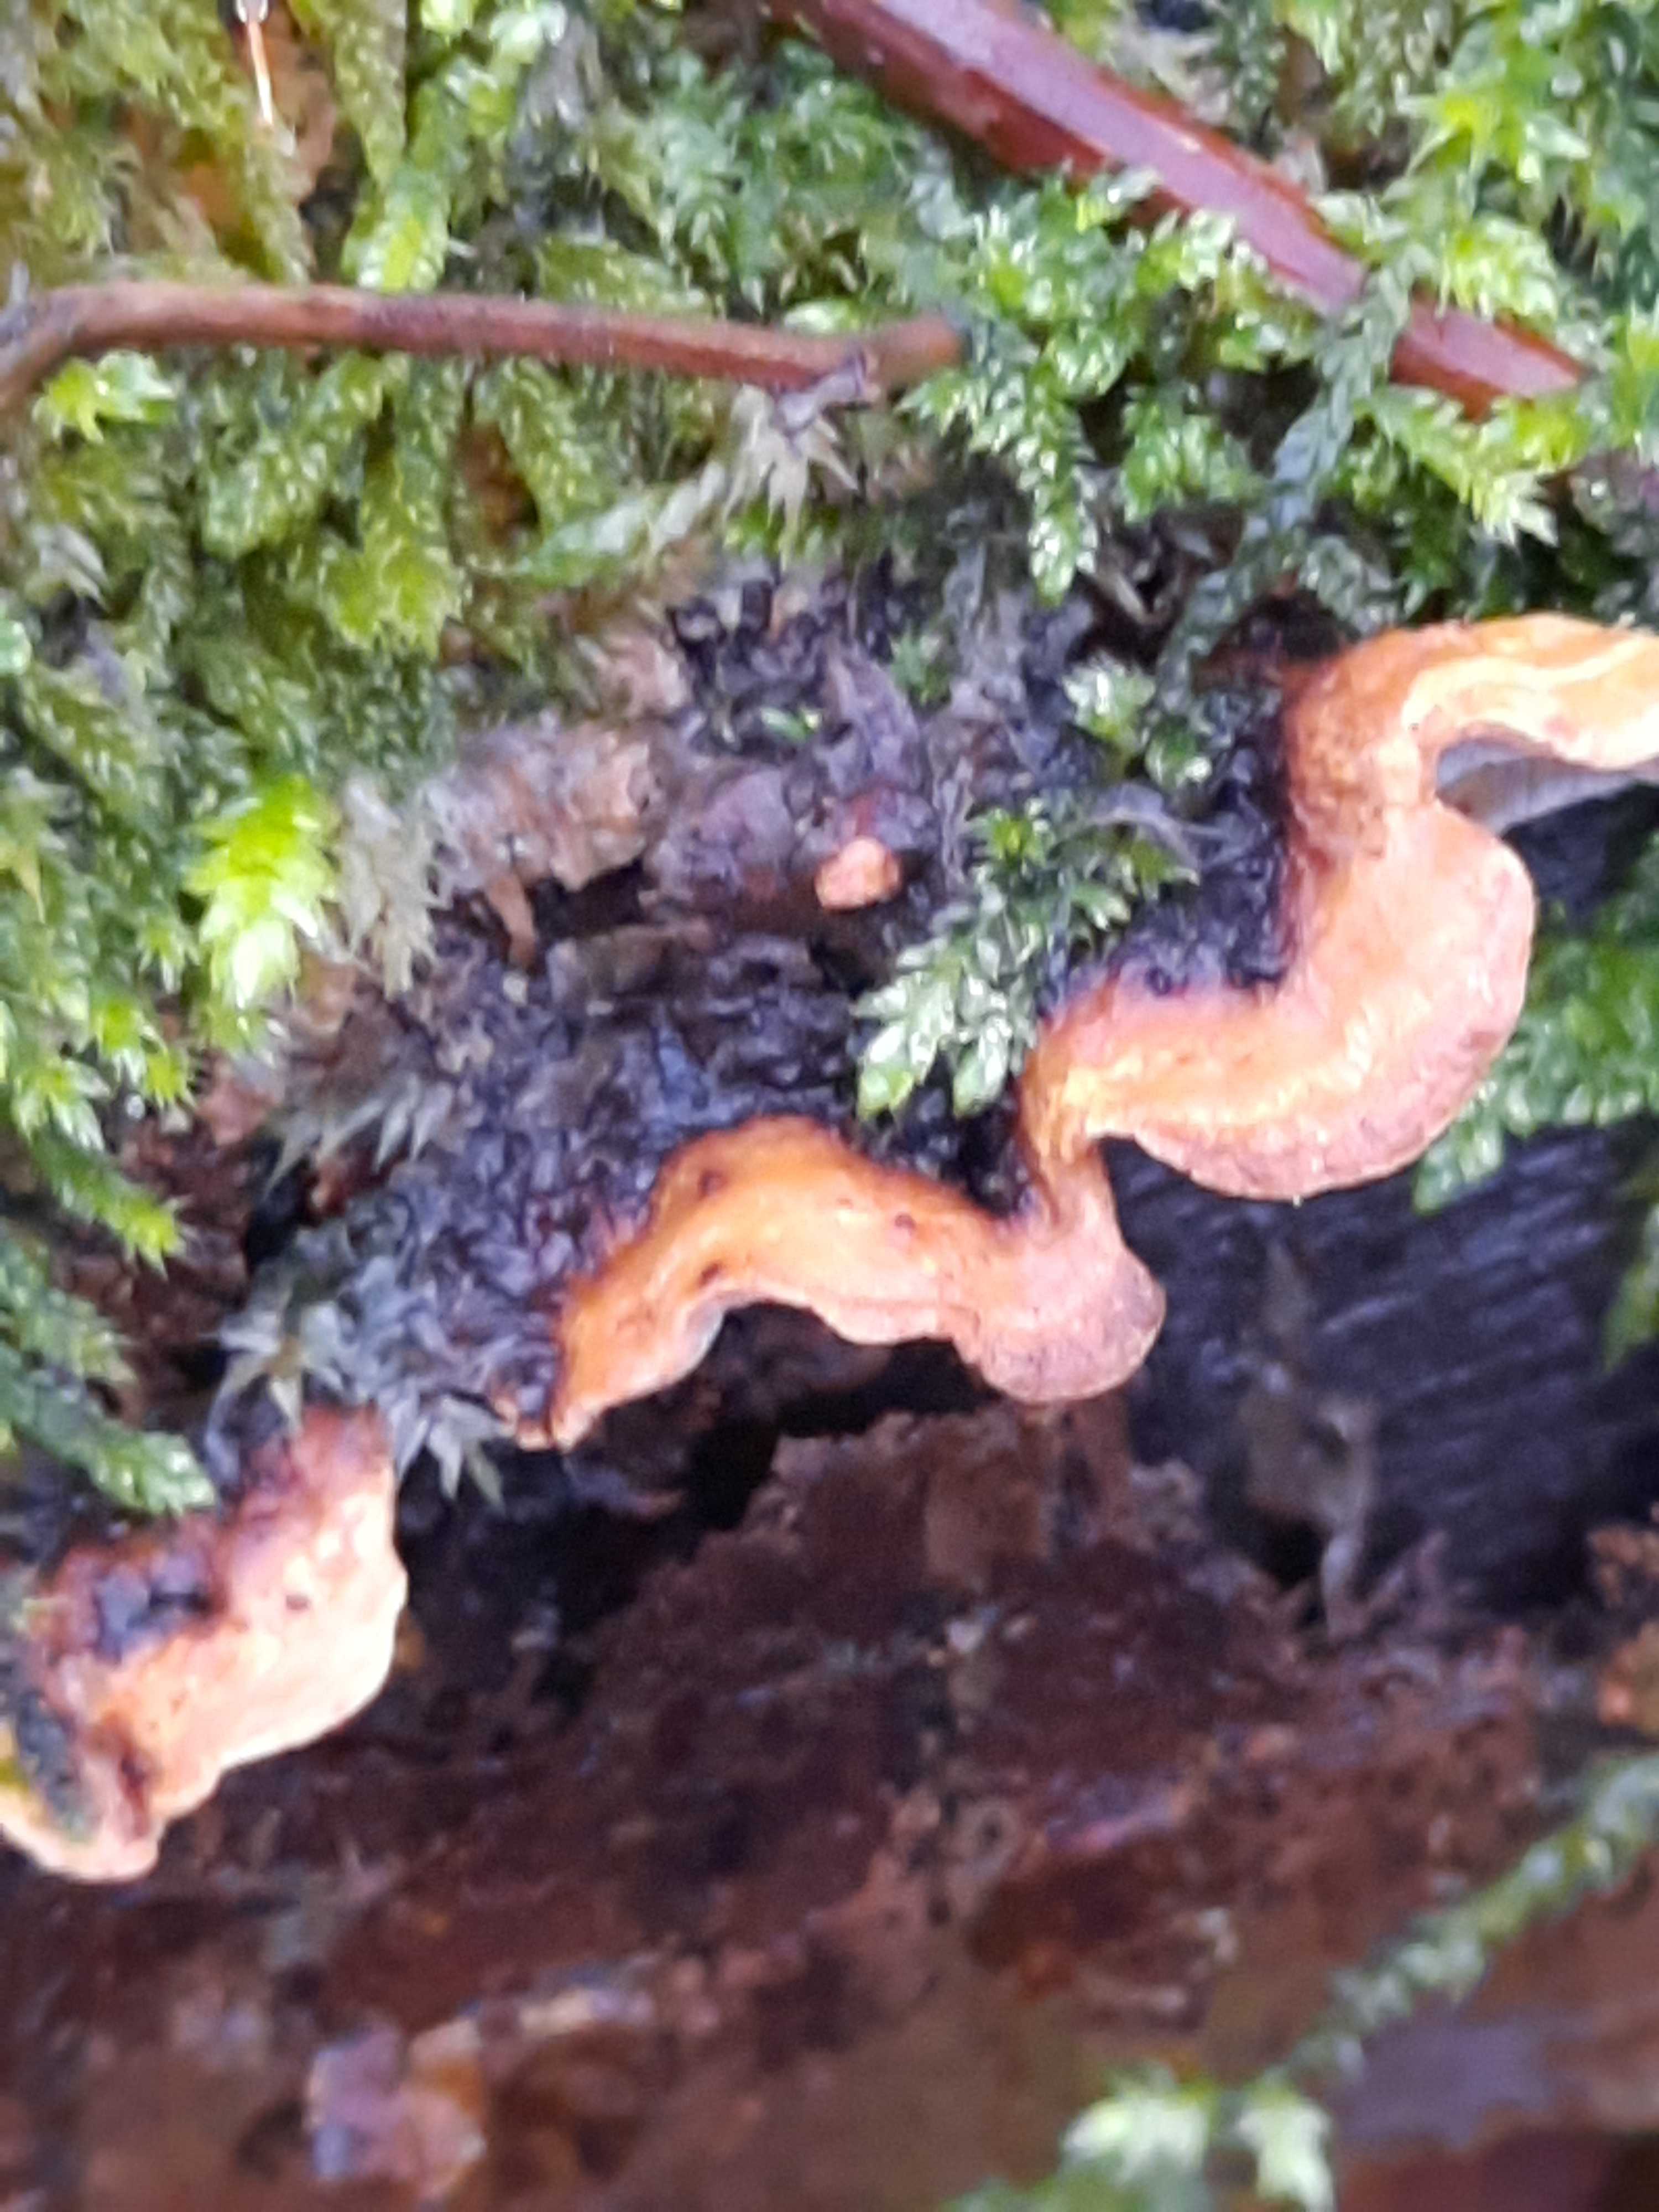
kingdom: Fungi
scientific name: Fungi
